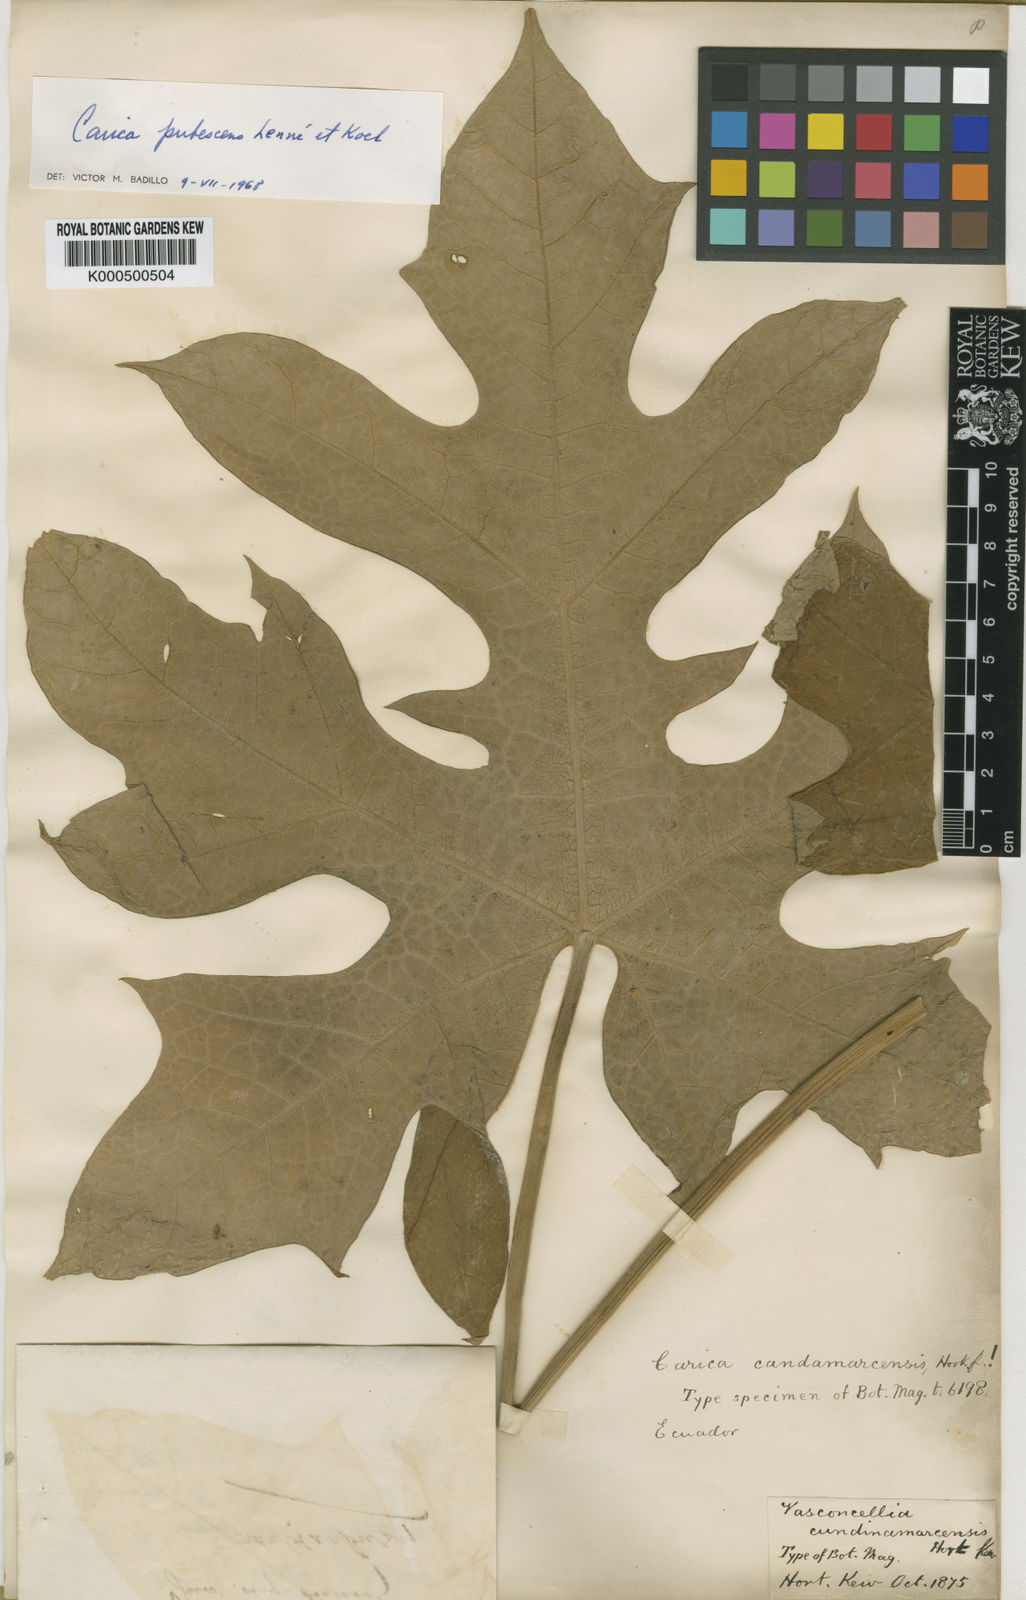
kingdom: Plantae
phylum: Tracheophyta
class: Magnoliopsida
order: Brassicales
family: Caricaceae
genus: Carica
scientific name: Carica
